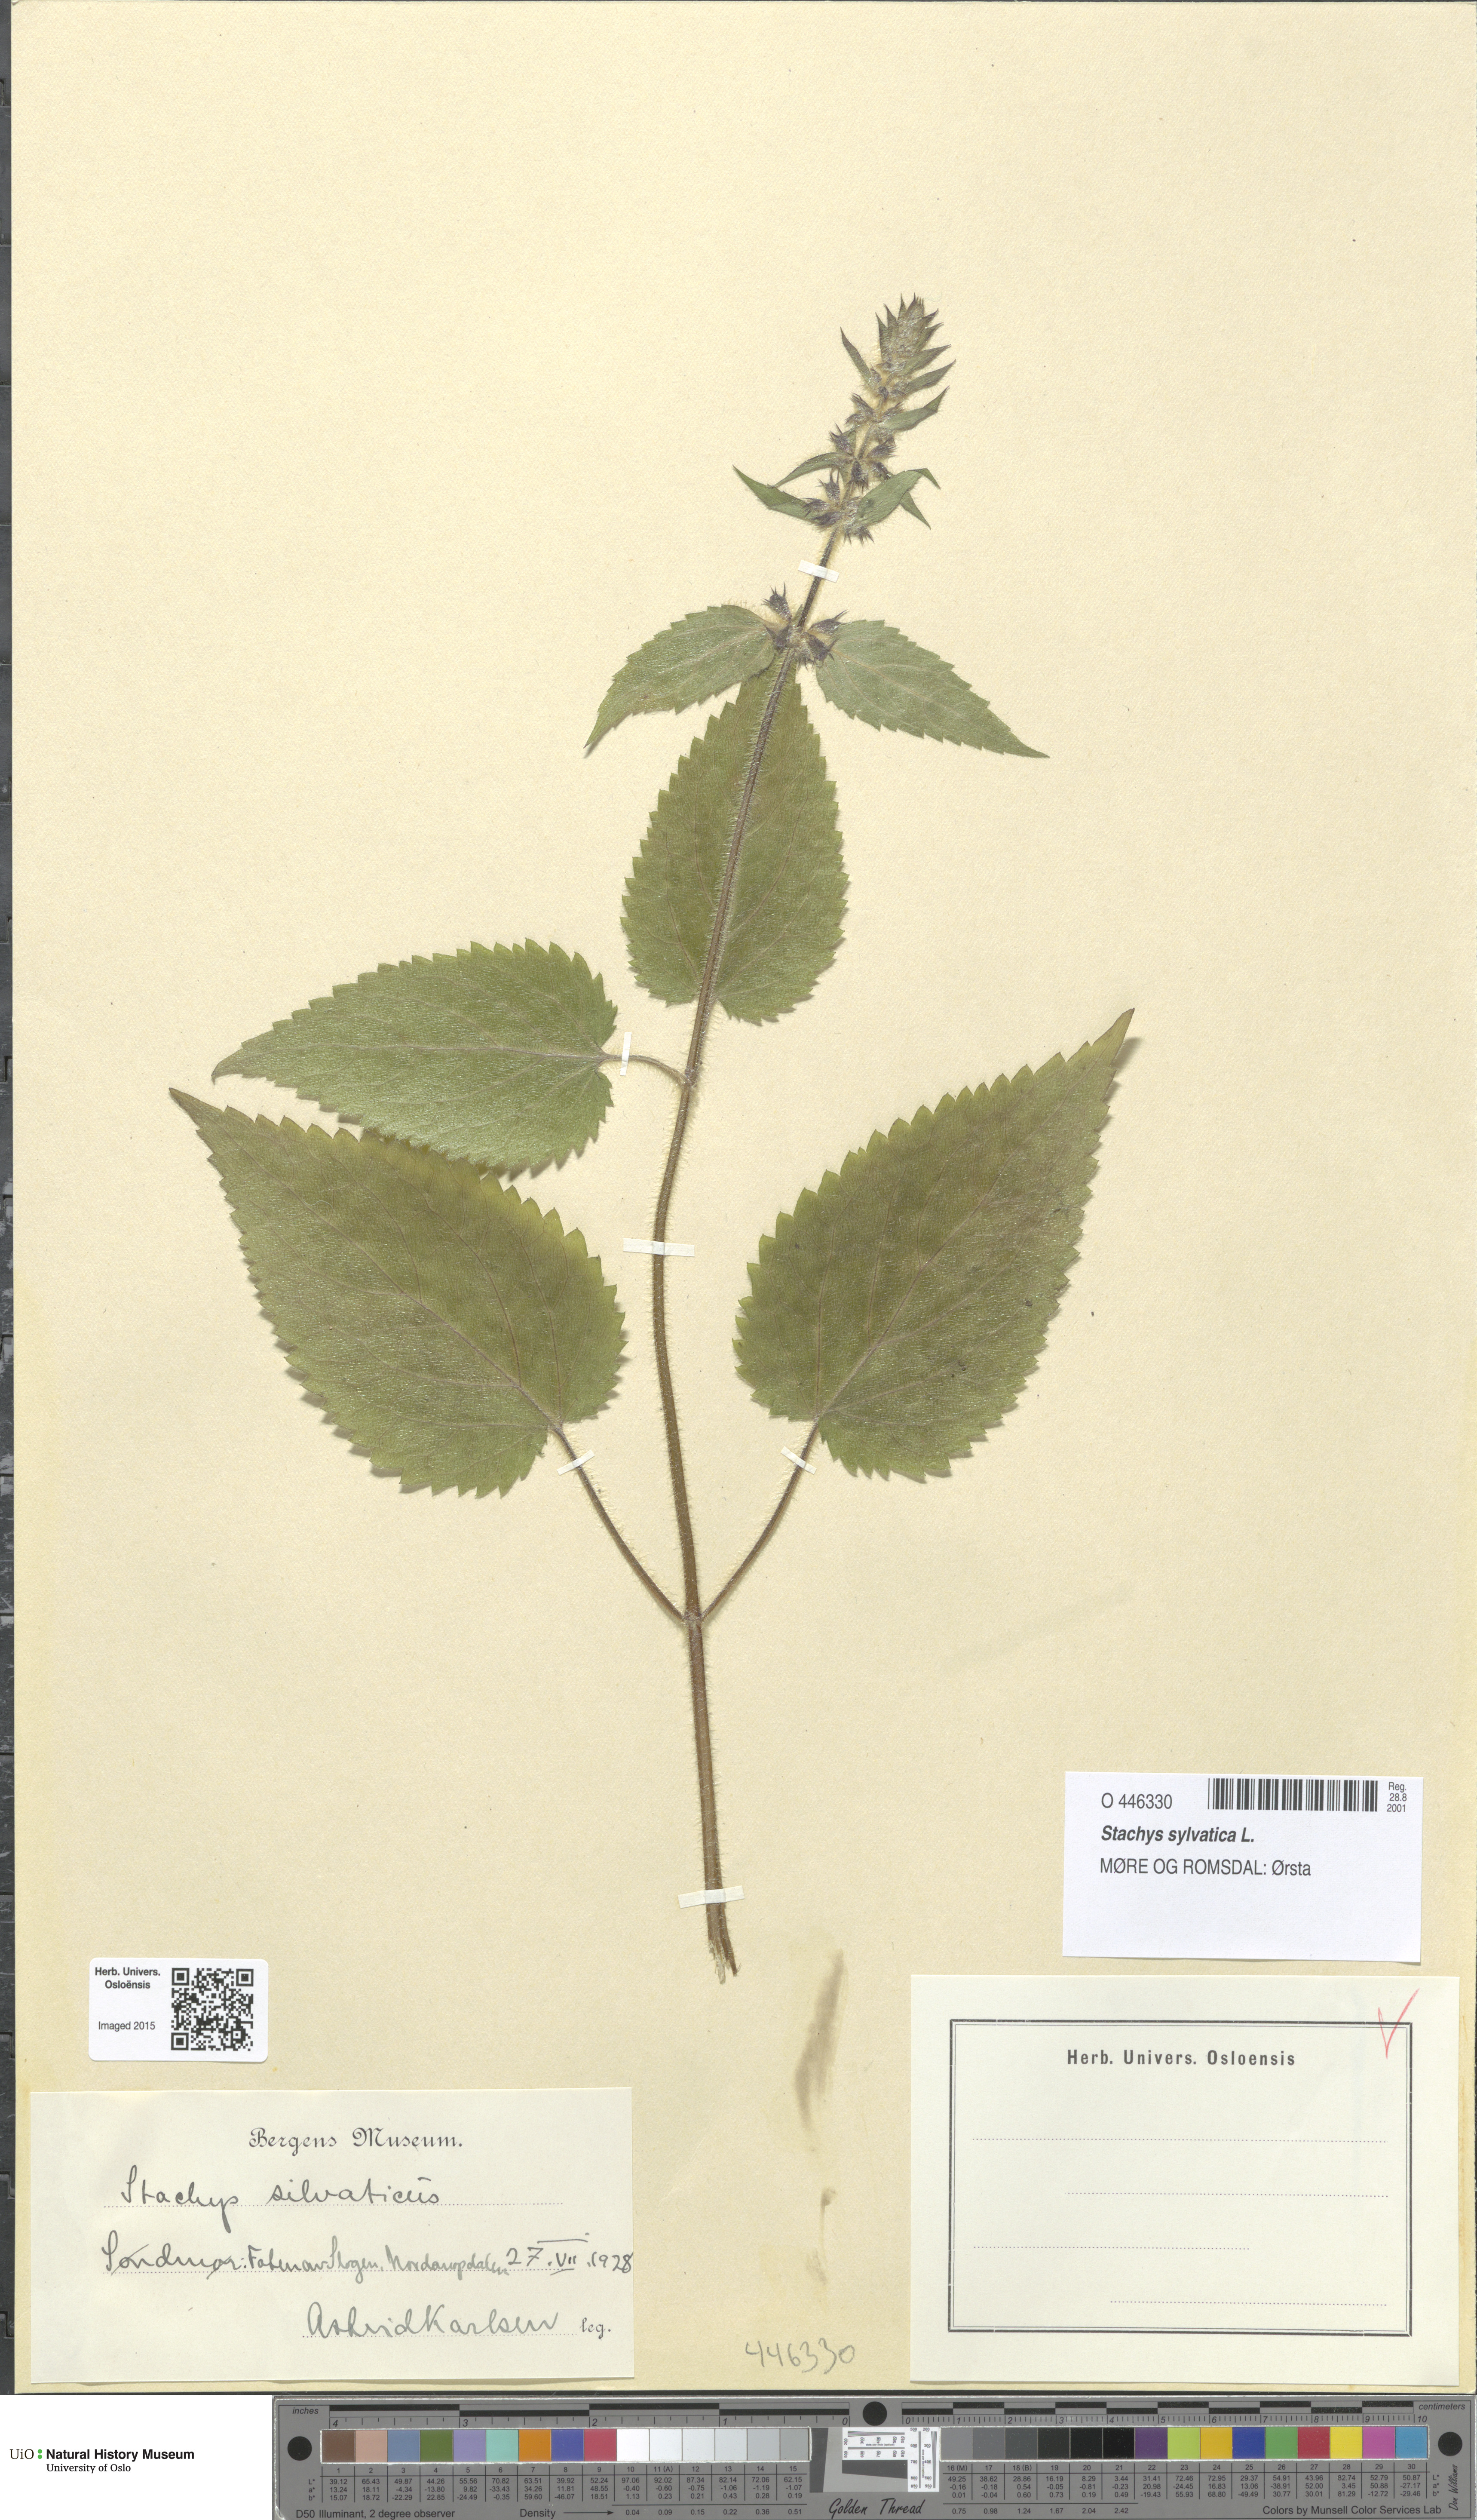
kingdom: Plantae
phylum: Tracheophyta
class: Magnoliopsida
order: Lamiales
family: Lamiaceae
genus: Stachys
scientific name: Stachys sylvatica
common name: Hedge woundwort
